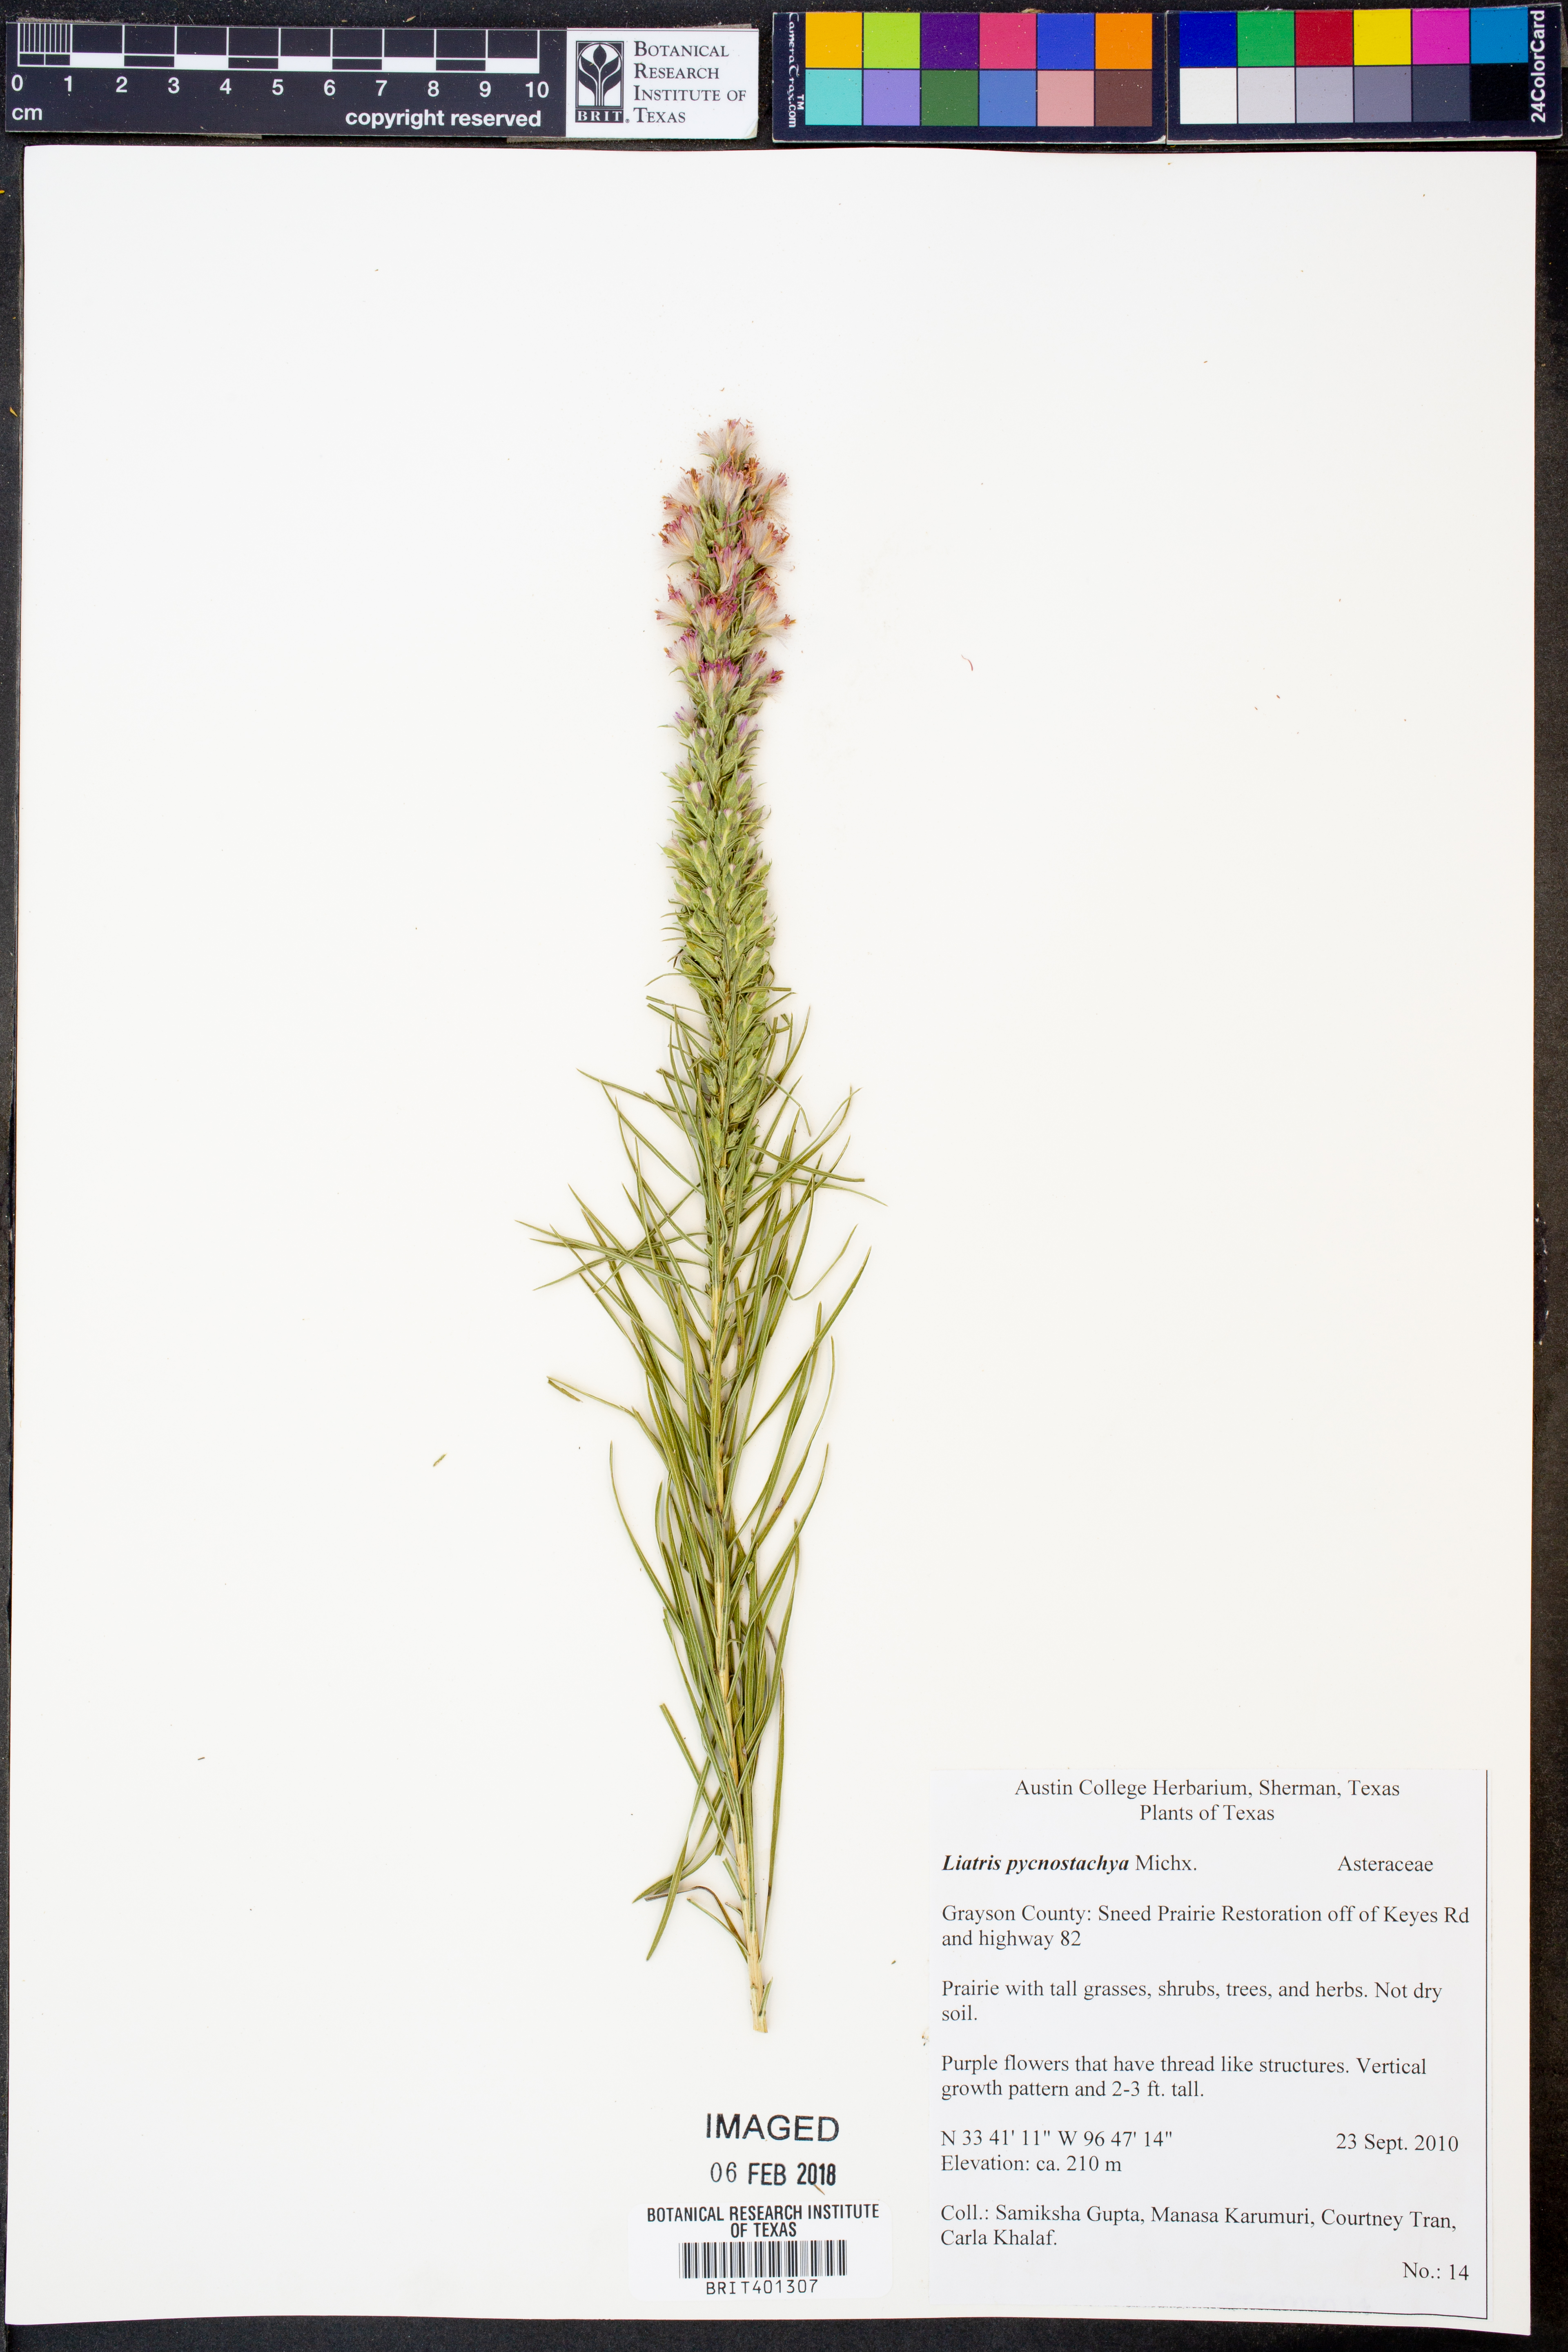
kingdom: Plantae
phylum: Tracheophyta
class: Magnoliopsida
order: Asterales
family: Asteraceae
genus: Liatris
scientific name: Liatris pycnostachya
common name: Cattail gayfeather
